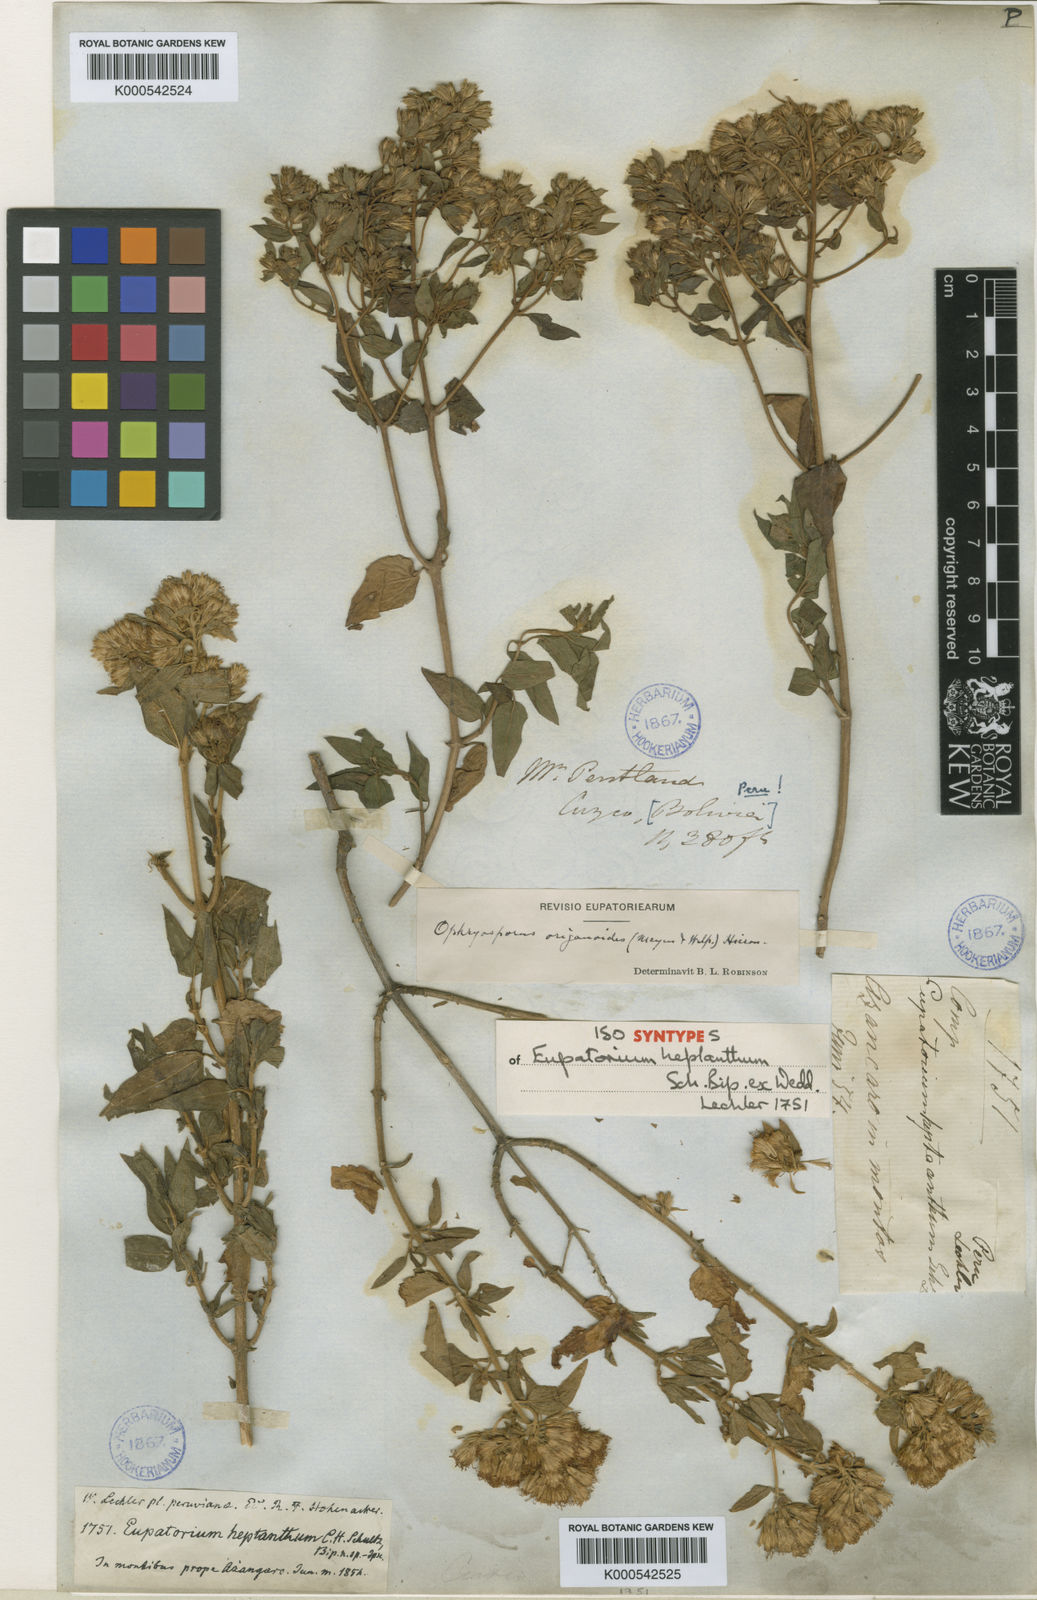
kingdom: Plantae
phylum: Tracheophyta
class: Magnoliopsida
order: Asterales
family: Asteraceae
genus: Ophryosporus
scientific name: Ophryosporus heptanthus
